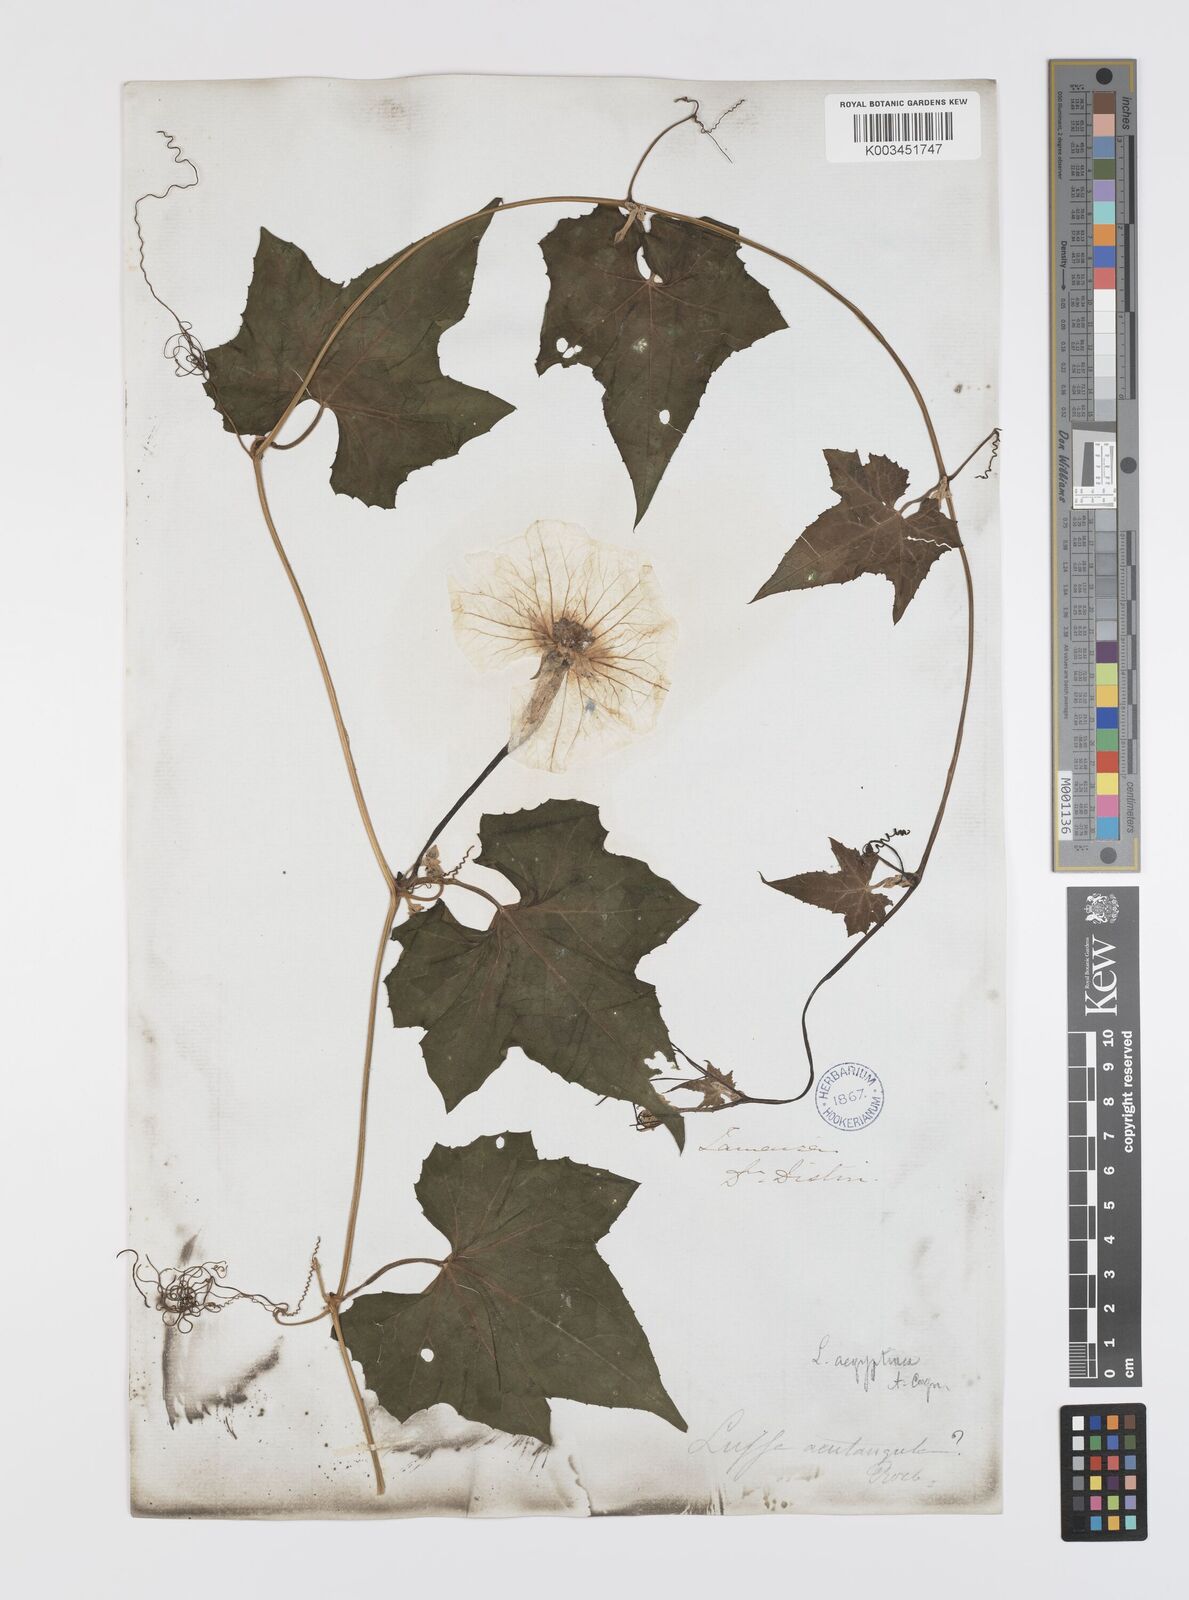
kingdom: Plantae
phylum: Tracheophyta
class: Magnoliopsida
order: Cucurbitales
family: Cucurbitaceae
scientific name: Cucurbitaceae
